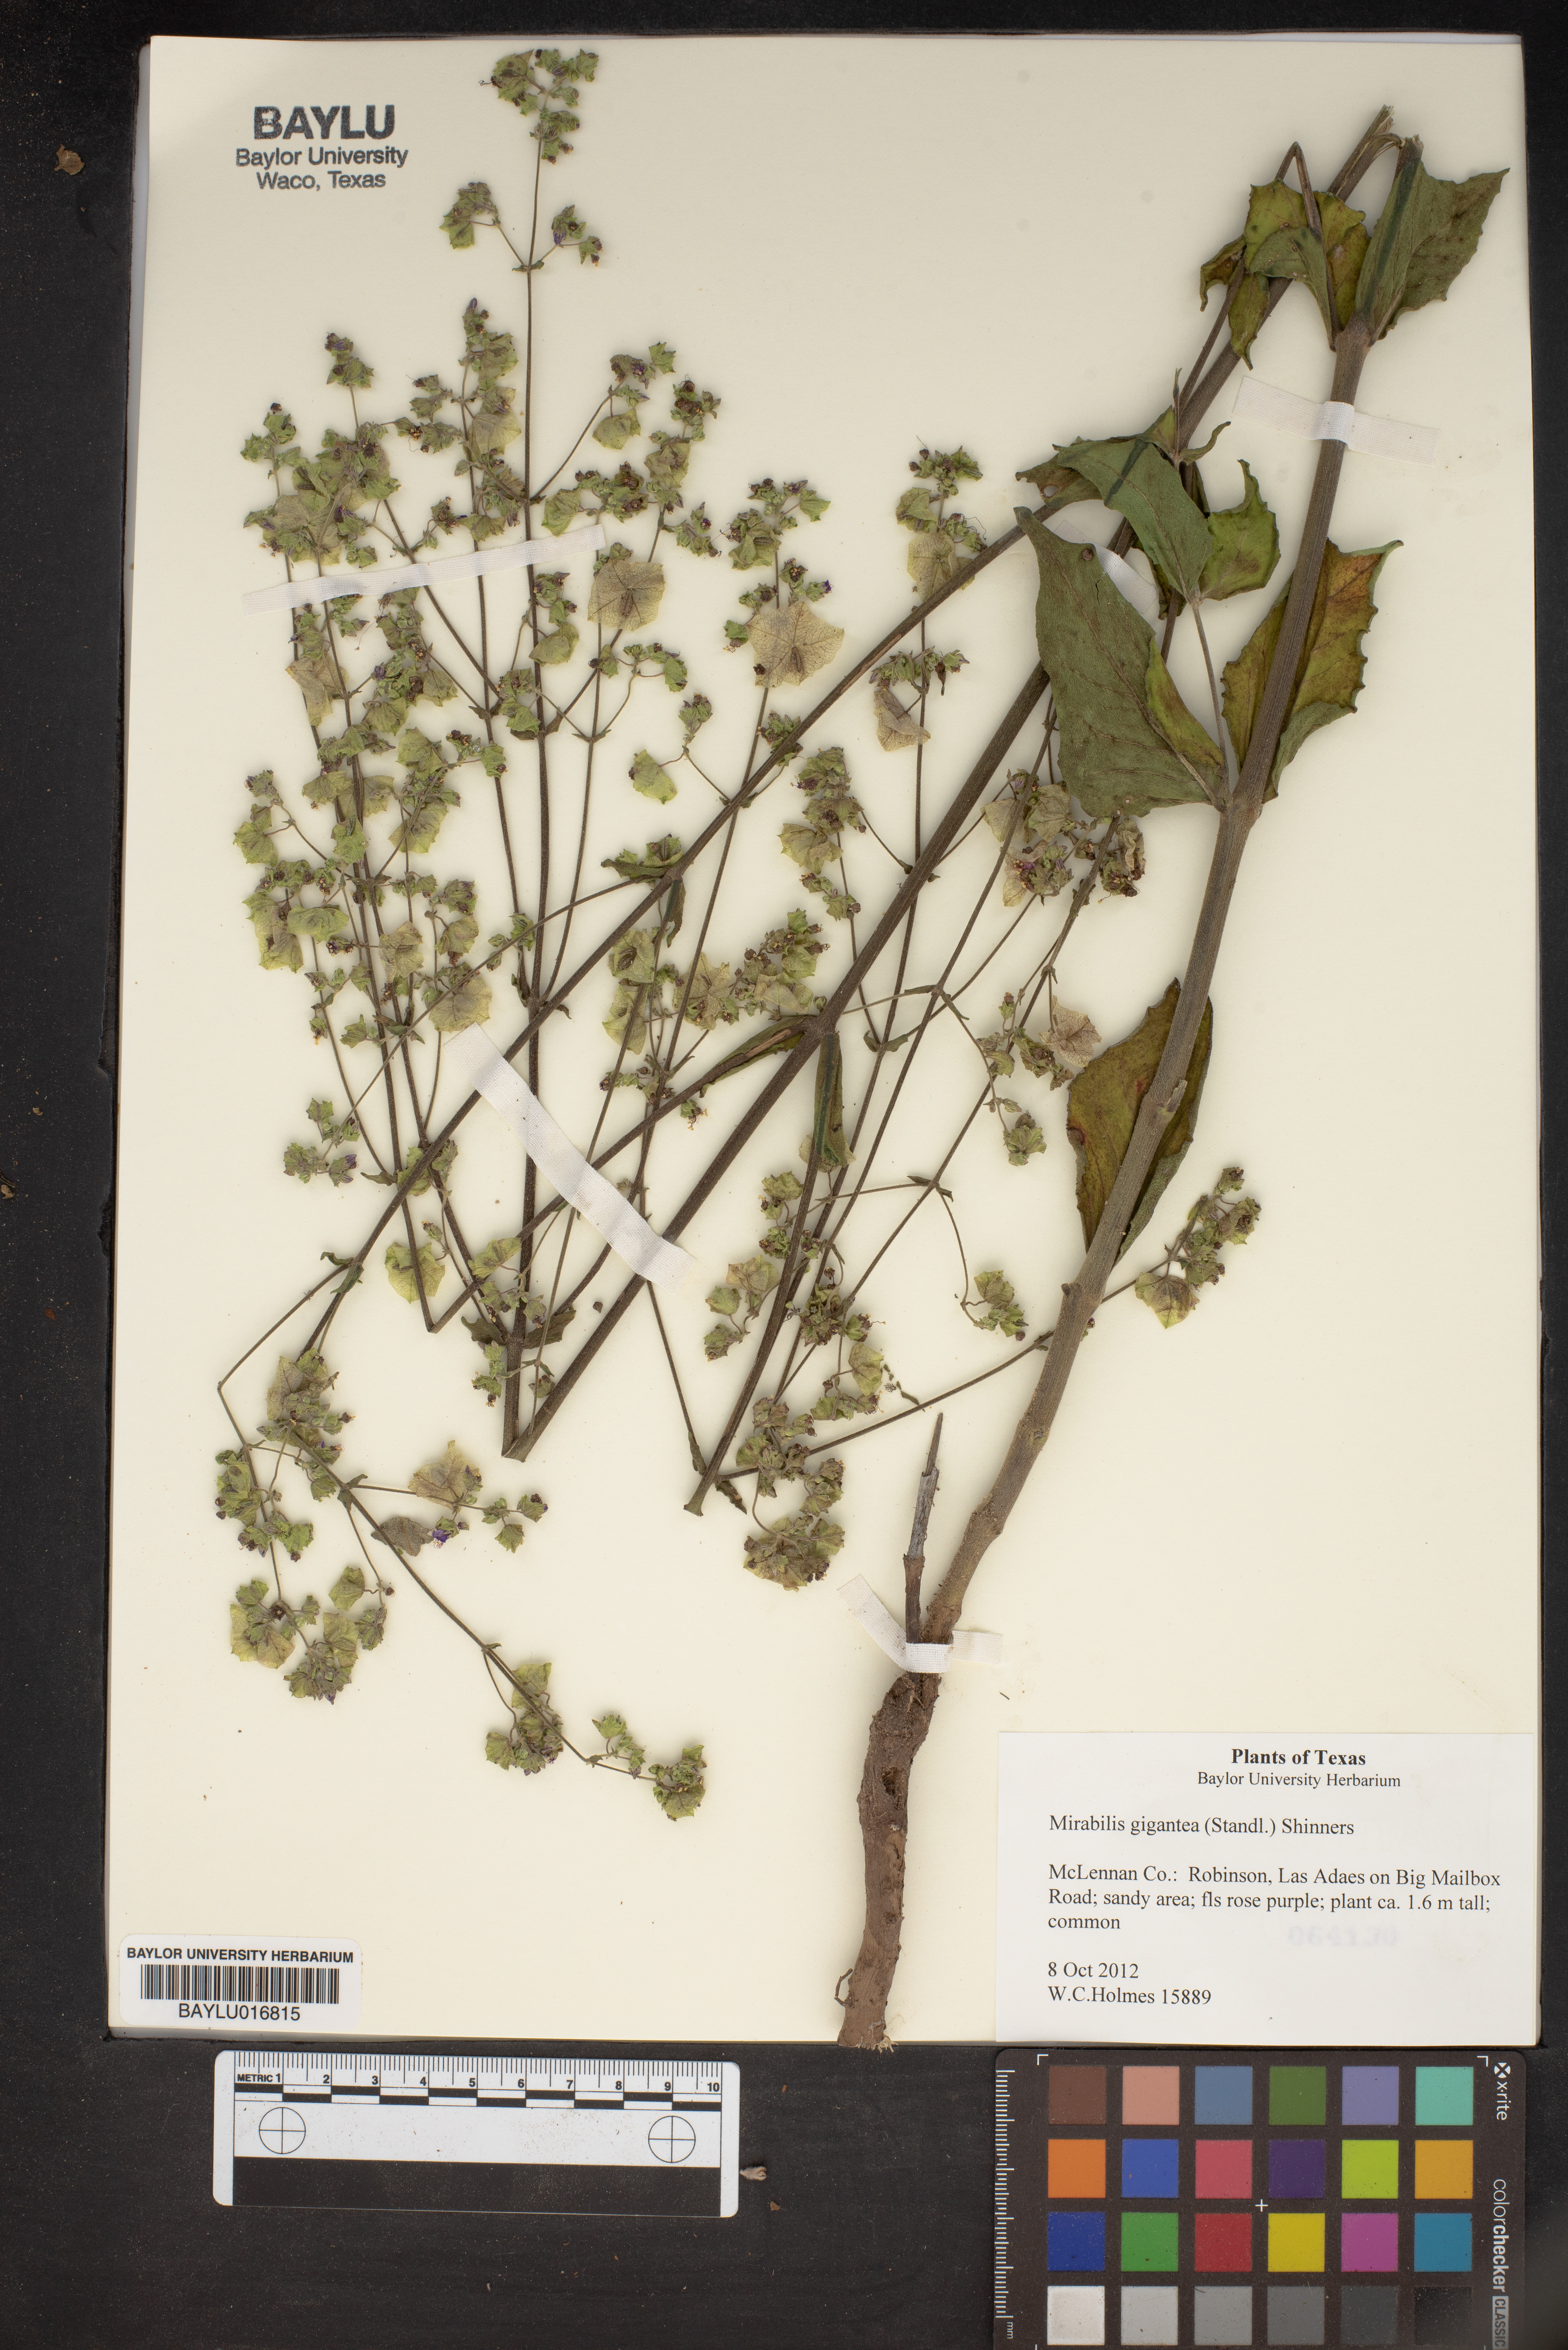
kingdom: Plantae
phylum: Tracheophyta
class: Magnoliopsida
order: Caryophyllales
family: Nyctaginaceae
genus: Mirabilis
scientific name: Mirabilis gigantea
